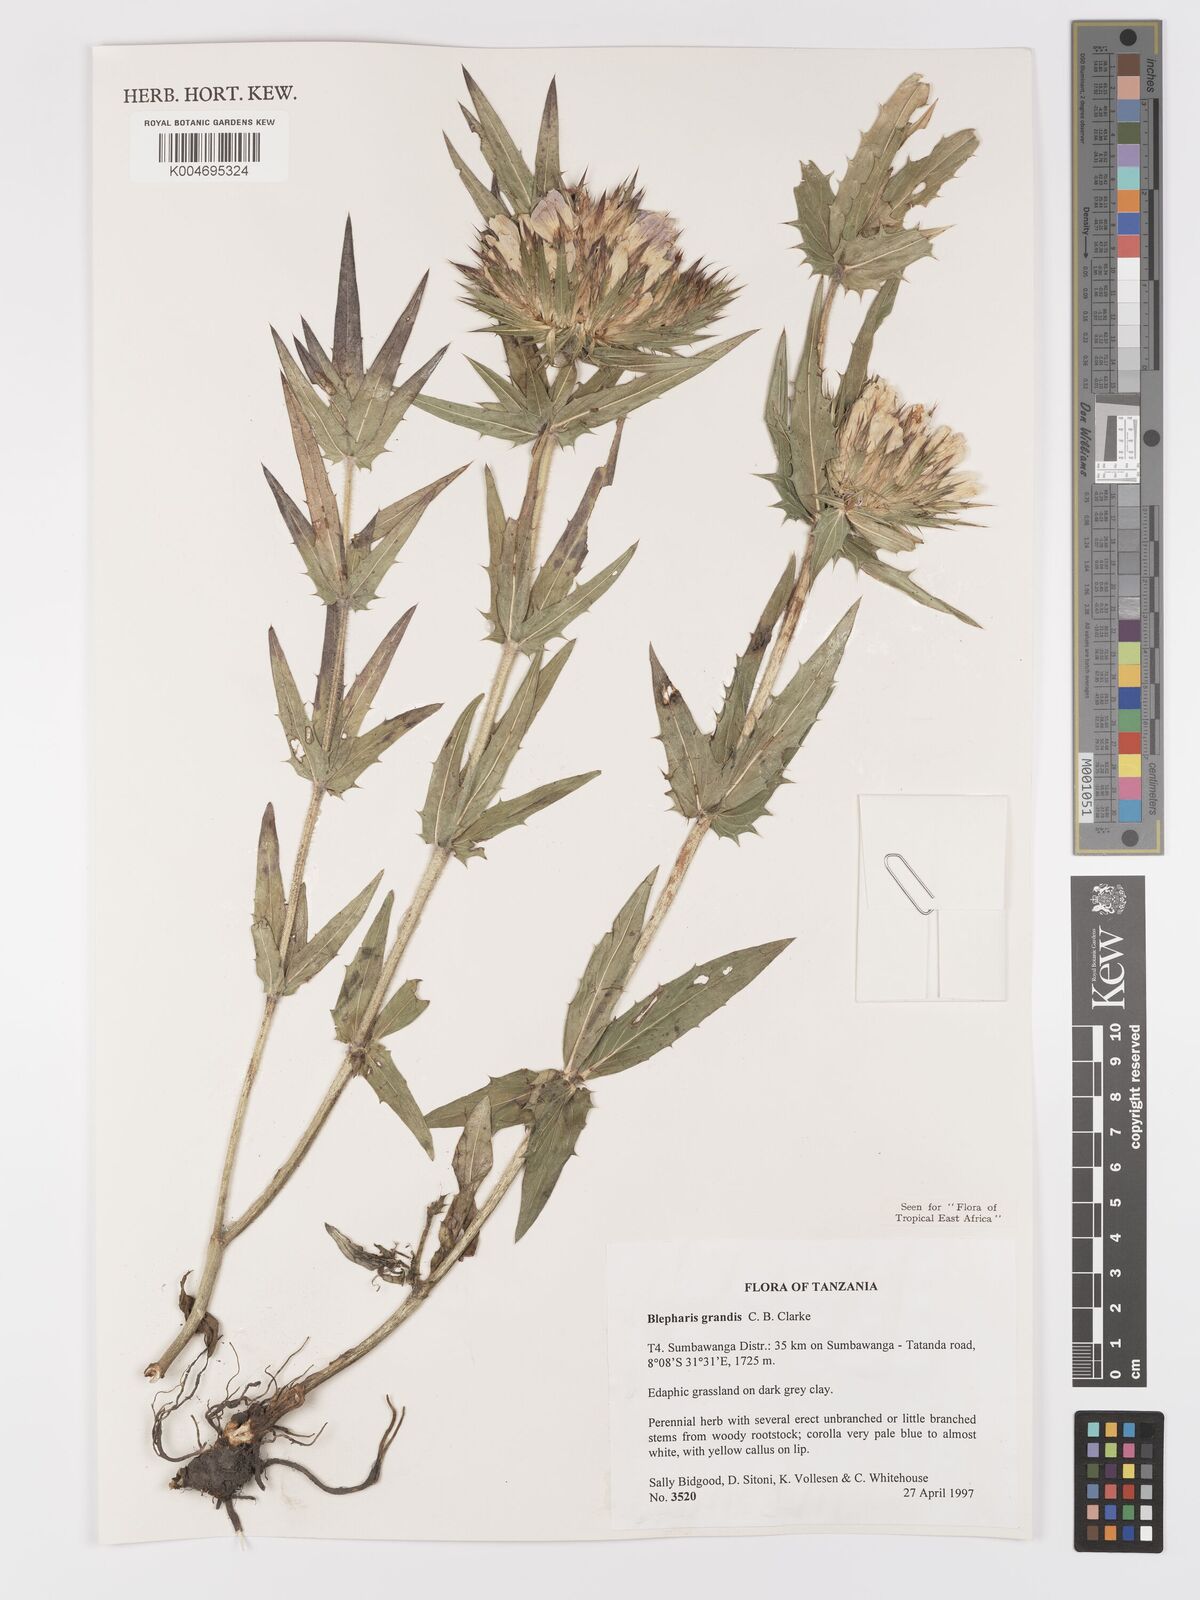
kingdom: Plantae
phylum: Tracheophyta
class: Magnoliopsida
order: Lamiales
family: Acanthaceae
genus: Blepharis
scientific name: Blepharis grandis
